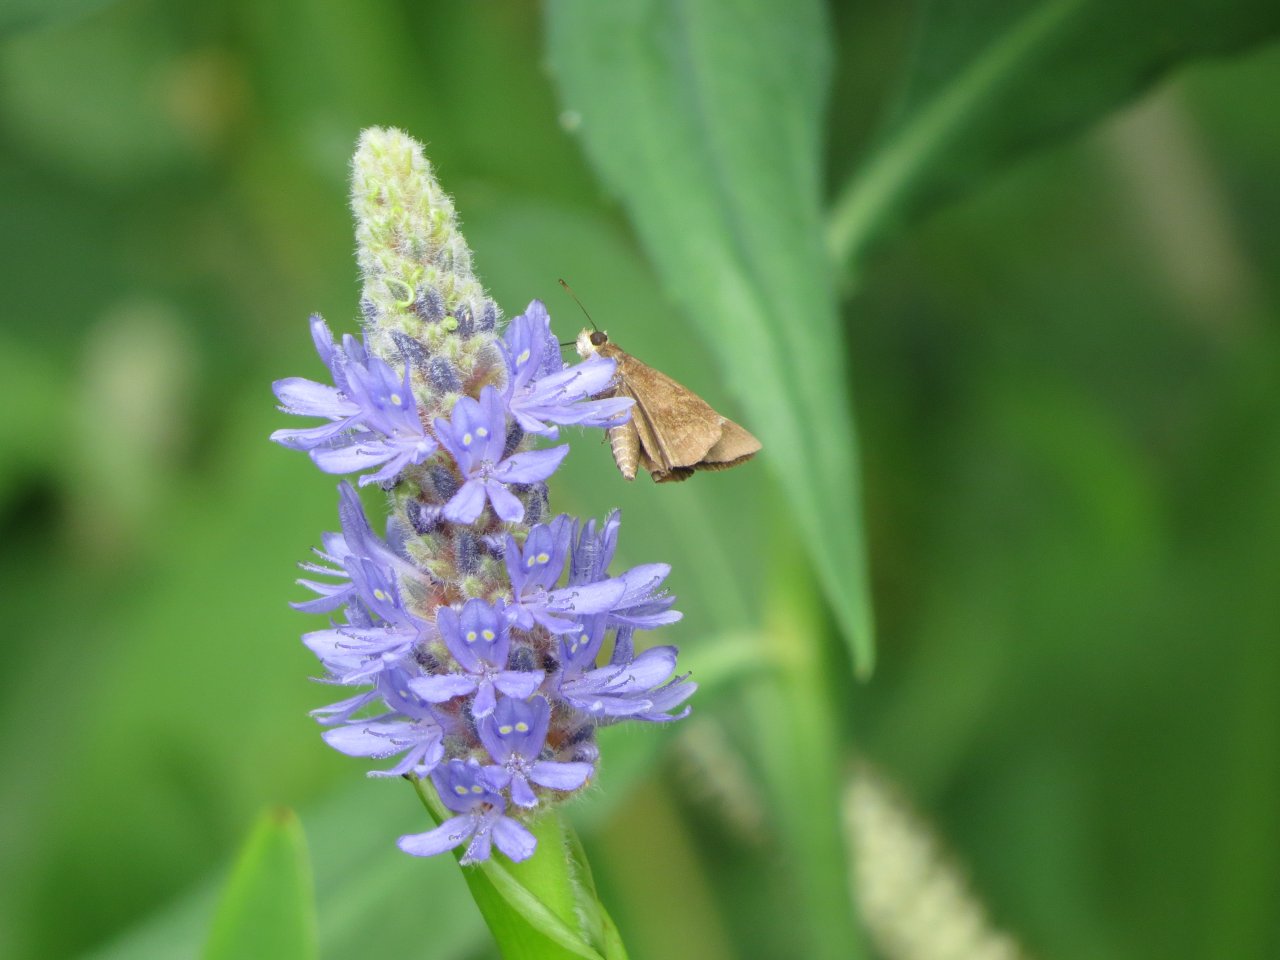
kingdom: Animalia
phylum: Arthropoda
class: Insecta
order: Lepidoptera
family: Hesperiidae
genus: Lerema
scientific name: Lerema accius
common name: Clouded Skipper
